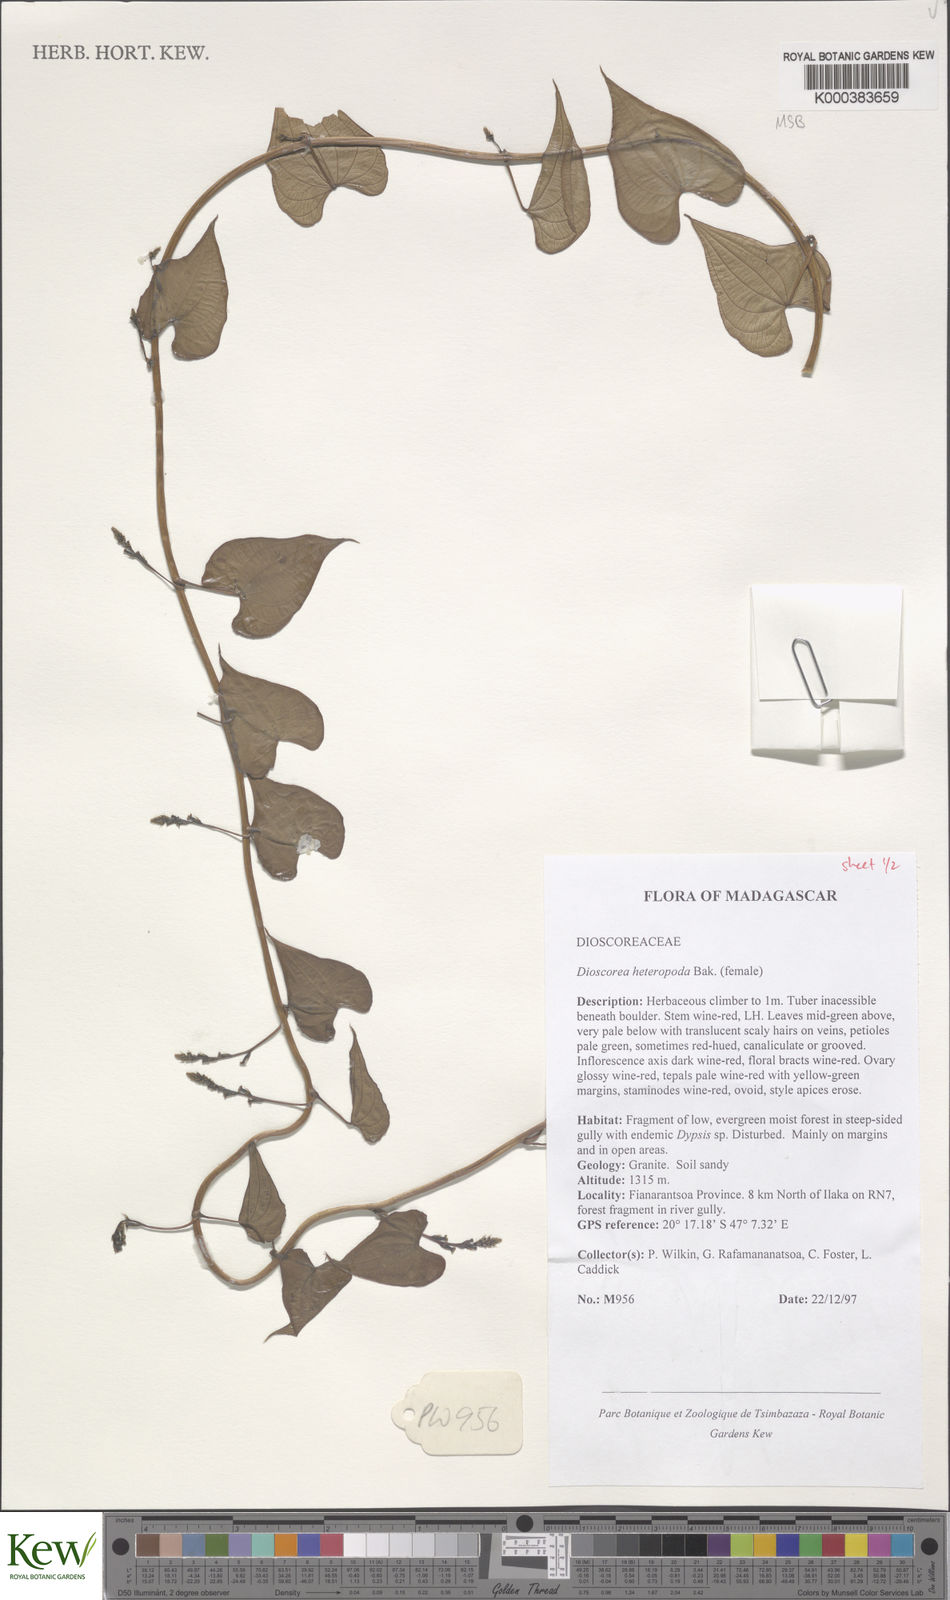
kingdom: Plantae
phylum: Tracheophyta
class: Liliopsida
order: Dioscoreales
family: Dioscoreaceae
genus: Dioscorea
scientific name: Dioscorea heteropoda
